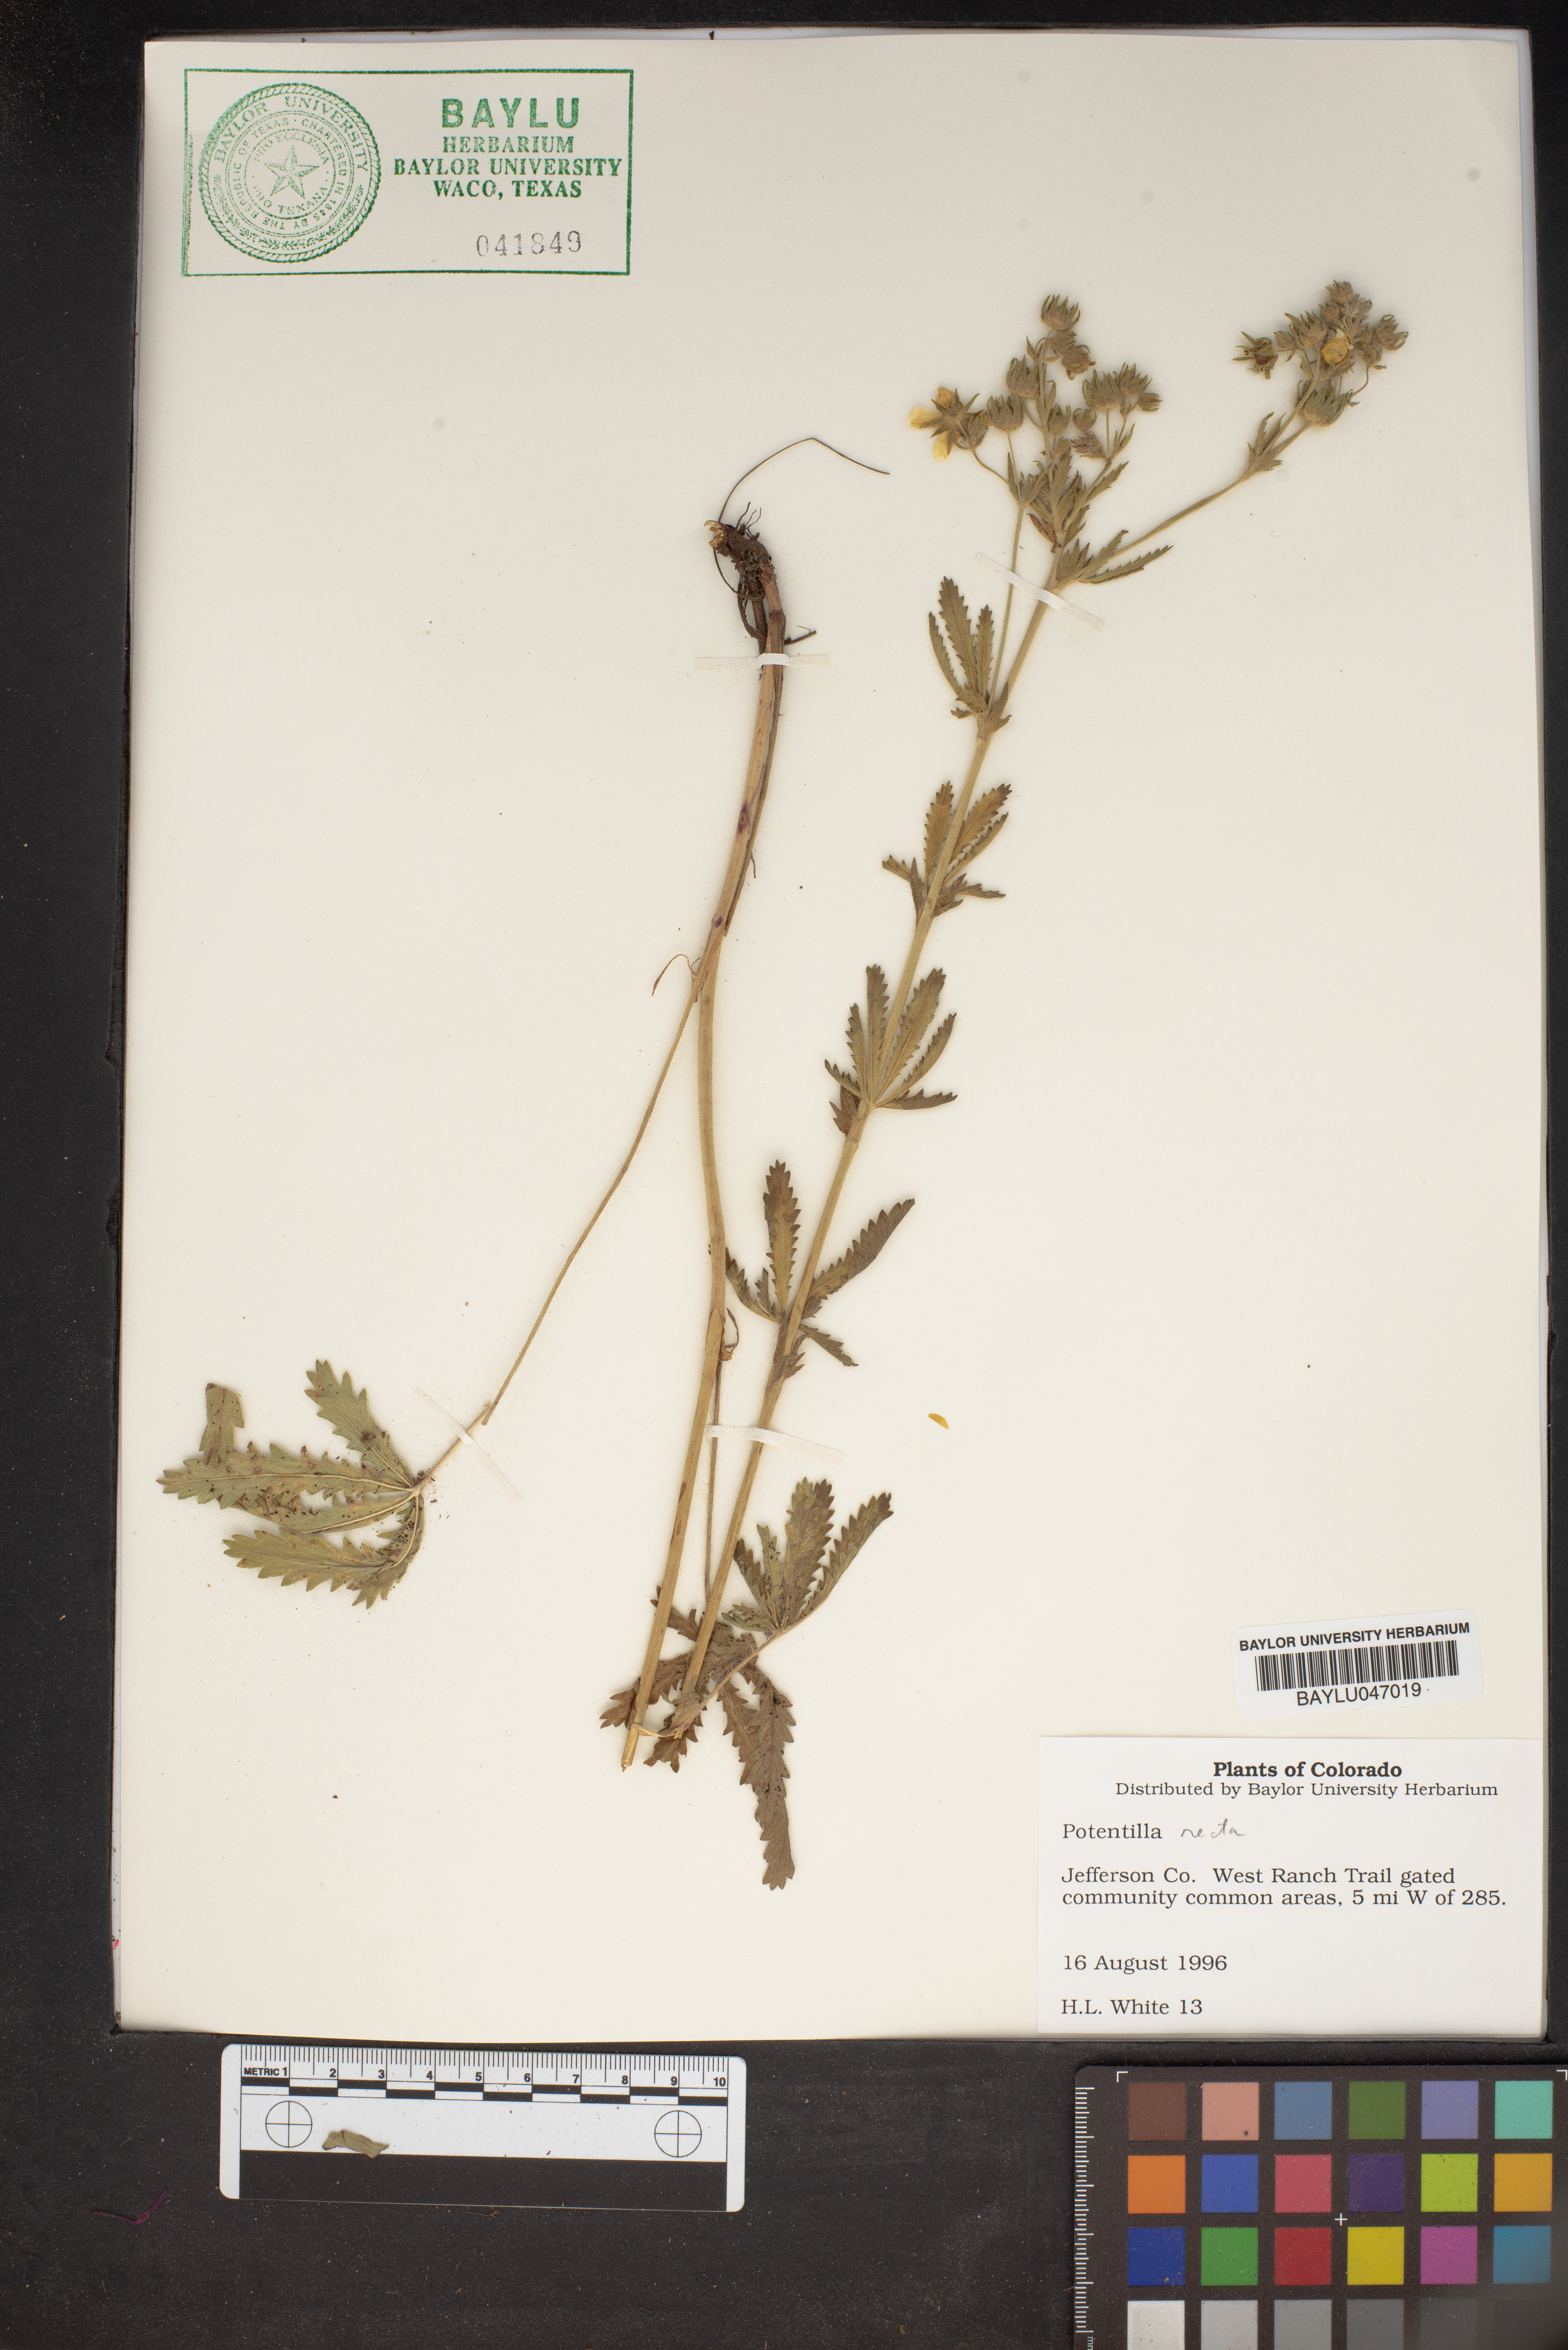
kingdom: Plantae
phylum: Tracheophyta
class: Magnoliopsida
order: Rosales
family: Rosaceae
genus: Potentilla
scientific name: Potentilla recta
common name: Sulphur cinquefoil
